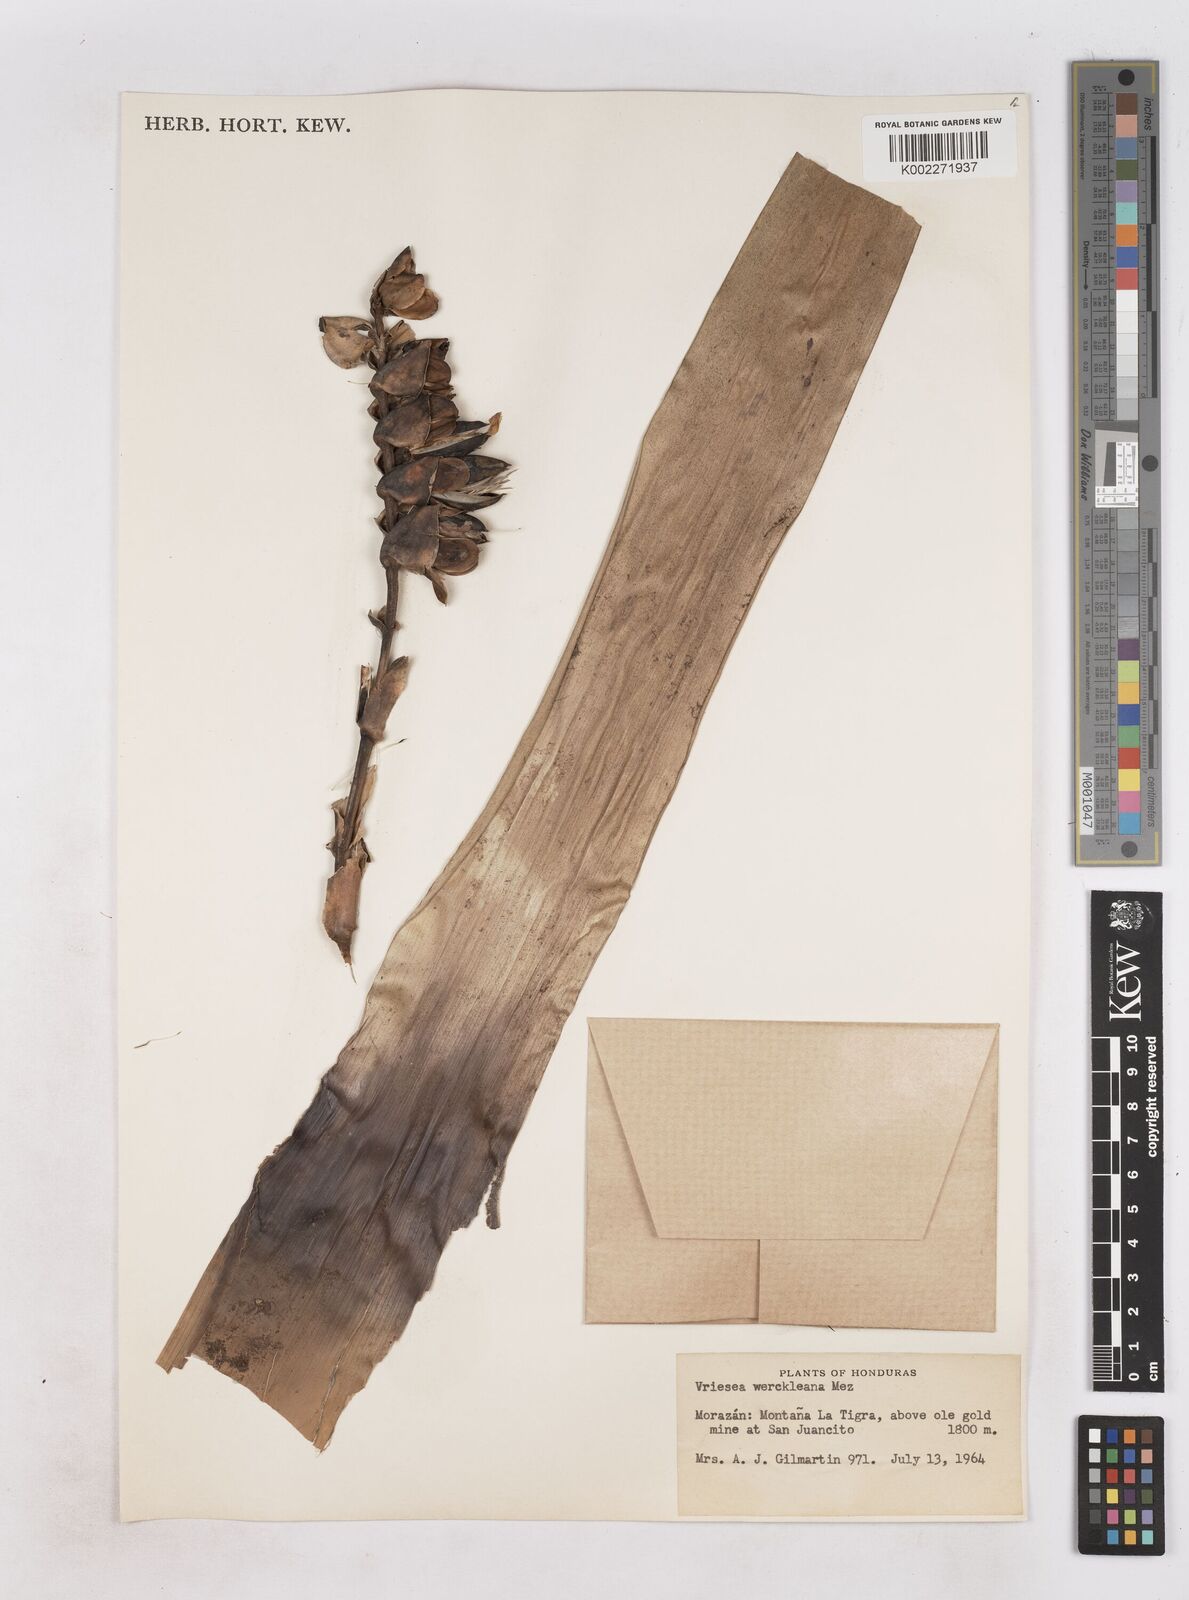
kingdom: Plantae
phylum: Tracheophyta
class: Liliopsida
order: Poales
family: Bromeliaceae
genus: Werauhia
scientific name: Werauhia werckleana
